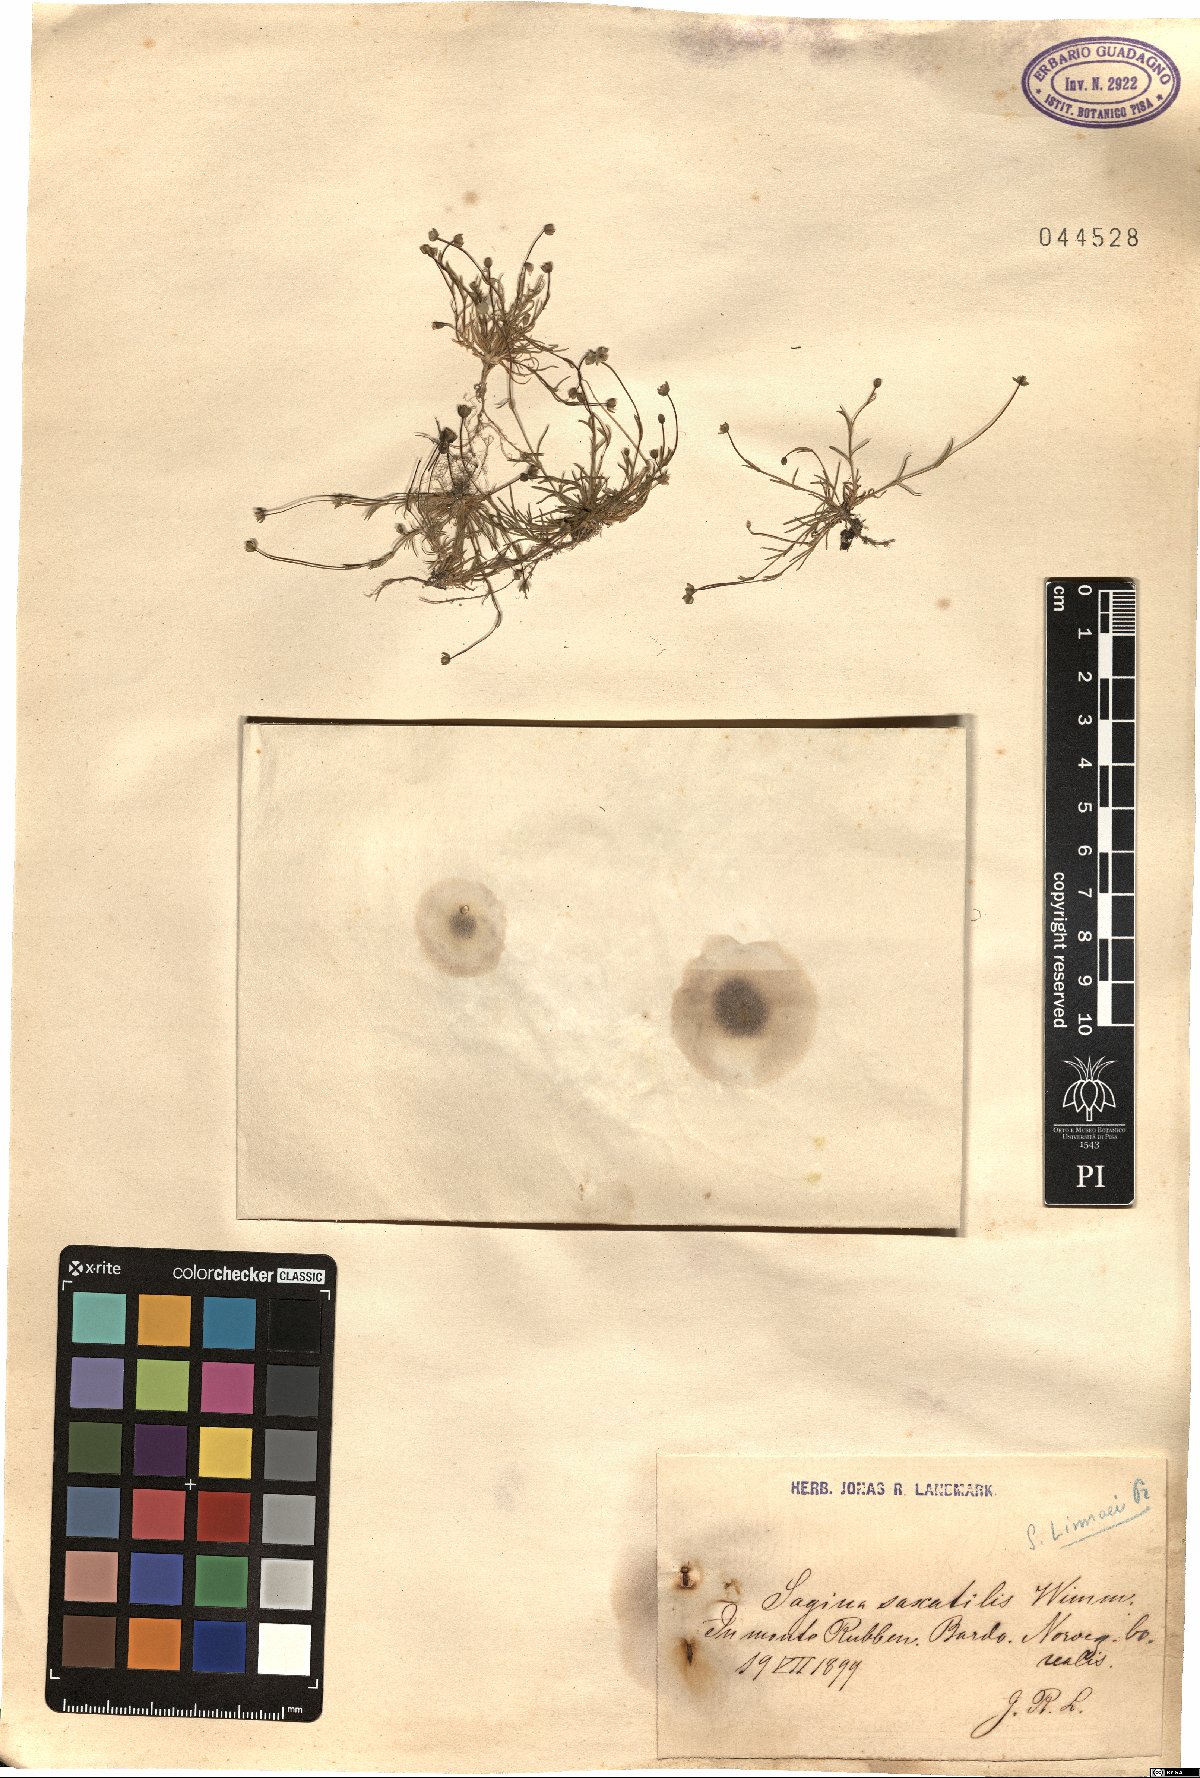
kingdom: Plantae
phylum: Tracheophyta
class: Magnoliopsida
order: Caryophyllales
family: Caryophyllaceae
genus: Sagina
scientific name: Sagina saginoides
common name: Alpine pearlwort
